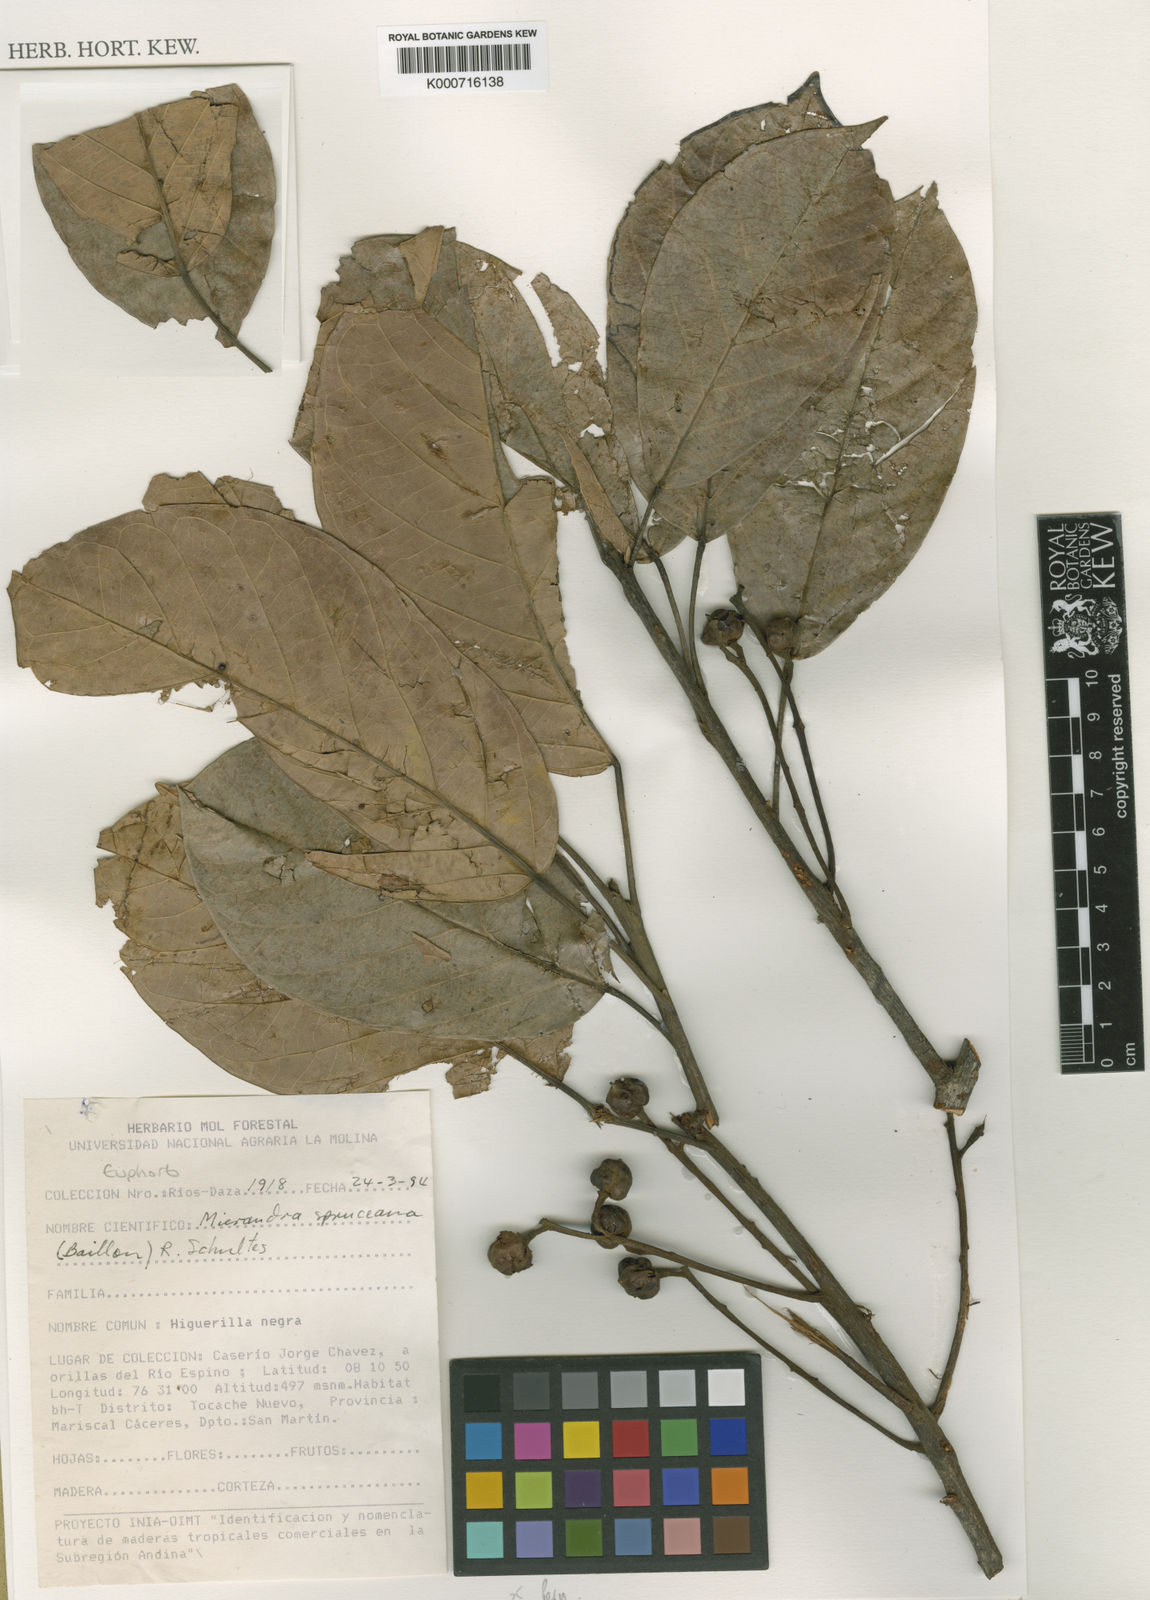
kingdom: Plantae
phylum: Tracheophyta
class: Magnoliopsida
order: Malpighiales
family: Euphorbiaceae
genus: Micrandra
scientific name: Micrandra spruceana
